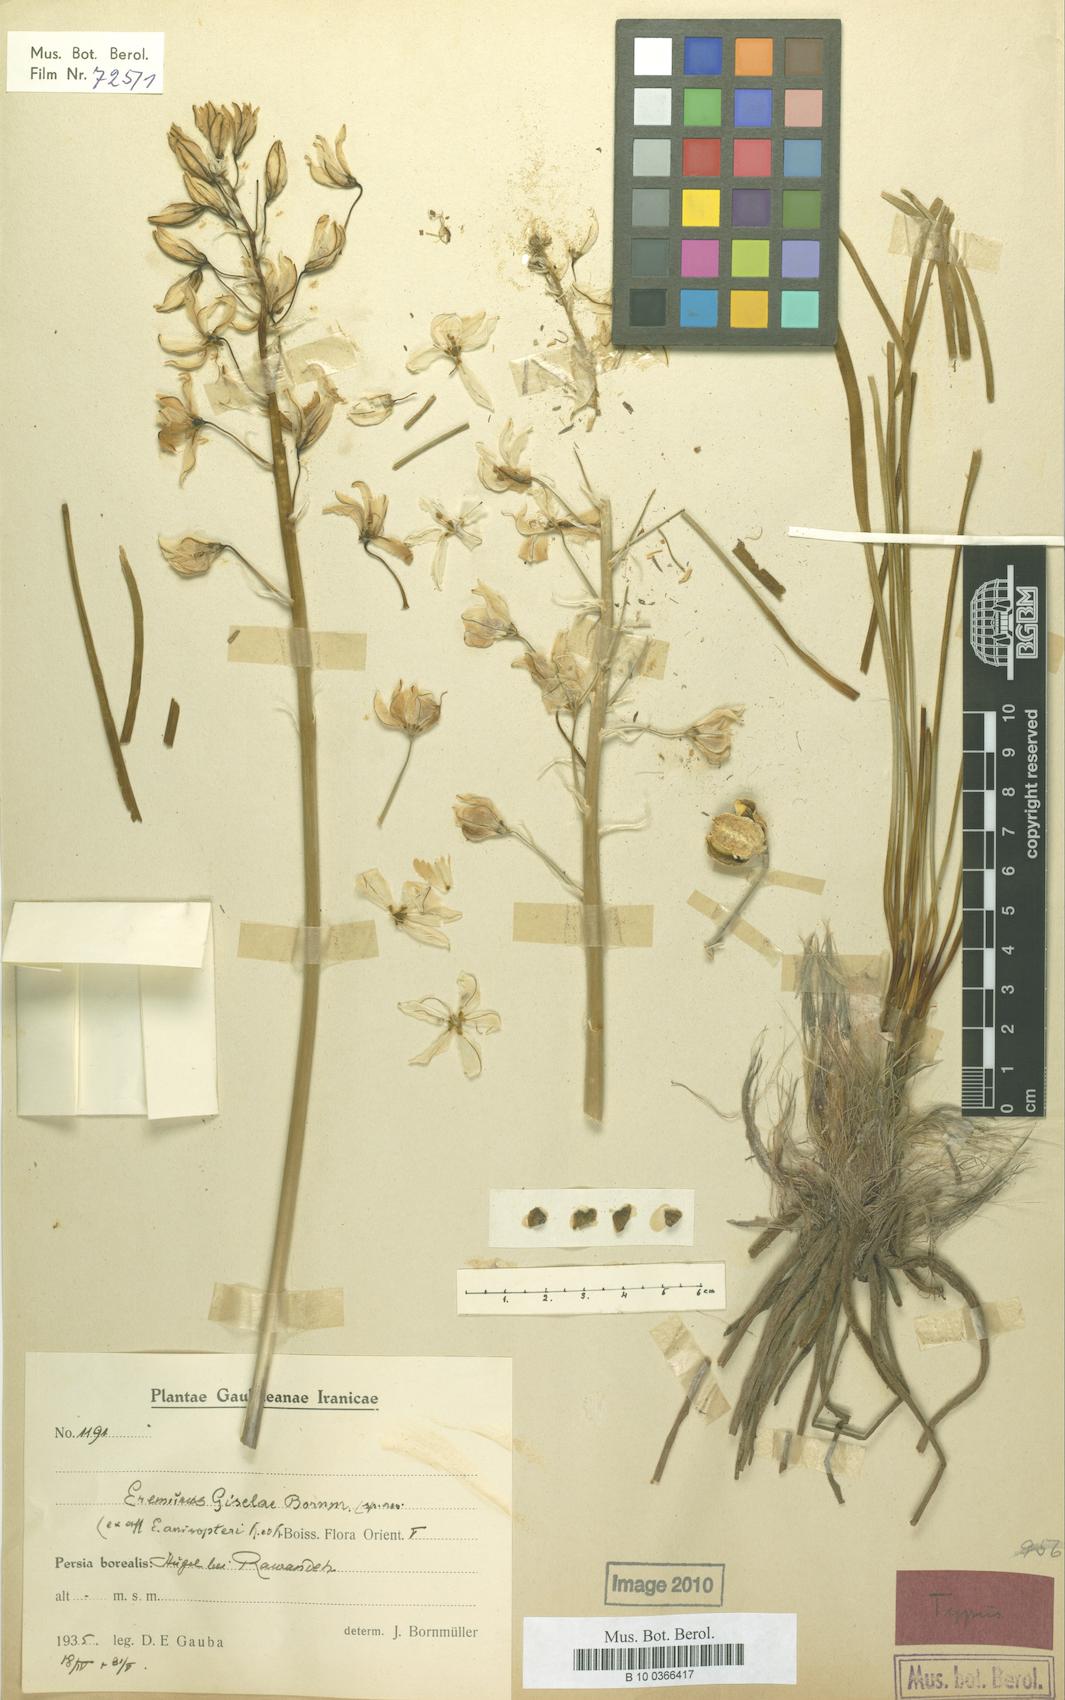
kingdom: Plantae
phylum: Tracheophyta
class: Liliopsida
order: Asparagales
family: Asphodelaceae
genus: Eremurus
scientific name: Eremurus kopet-daghensis
